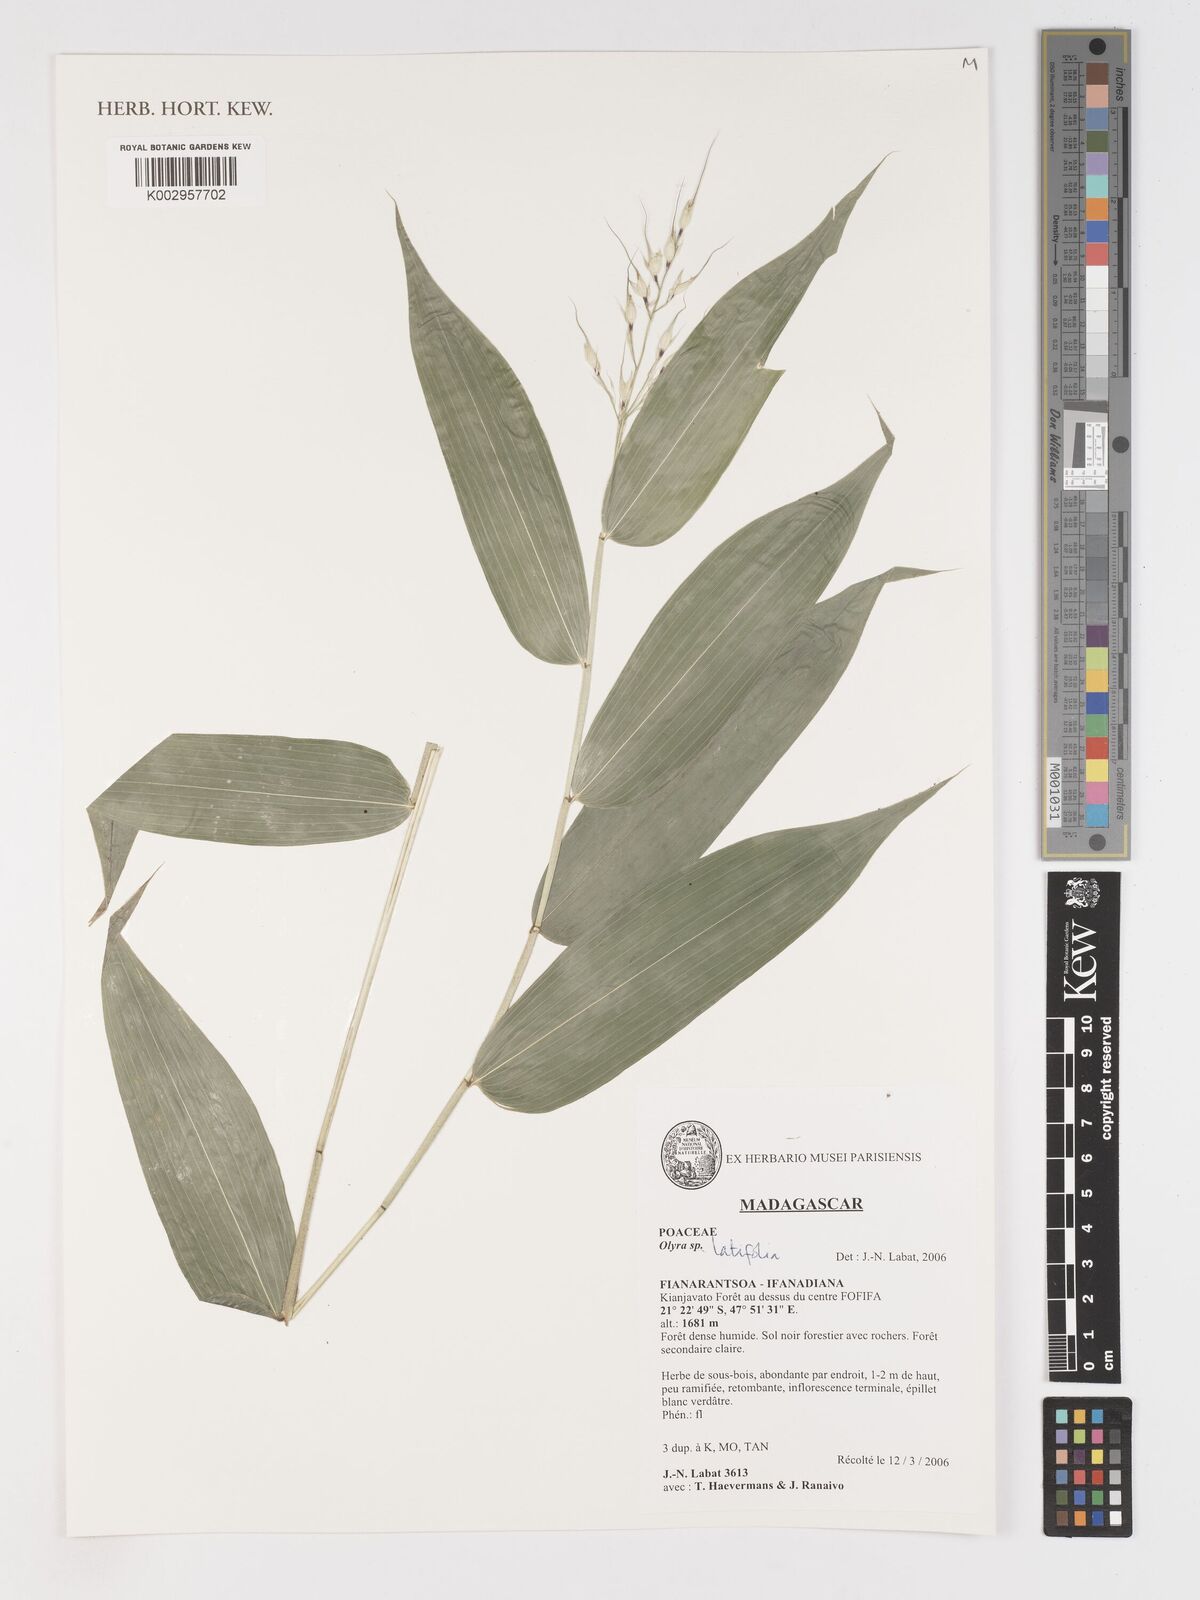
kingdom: Plantae
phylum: Tracheophyta
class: Liliopsida
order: Poales
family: Poaceae
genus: Olyra
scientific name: Olyra latifolia
